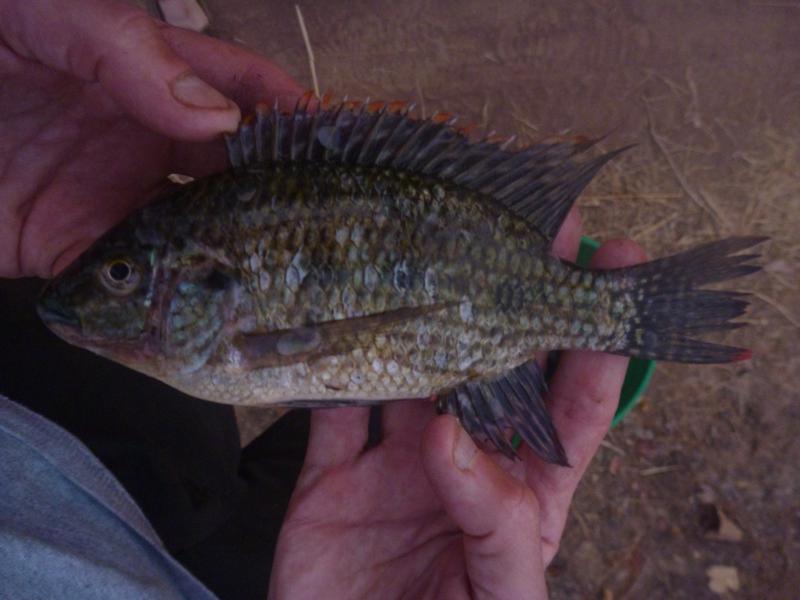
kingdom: Animalia
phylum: Chordata
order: Perciformes
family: Cichlidae
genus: Oreochromis
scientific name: Oreochromis karomo
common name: Karomo
